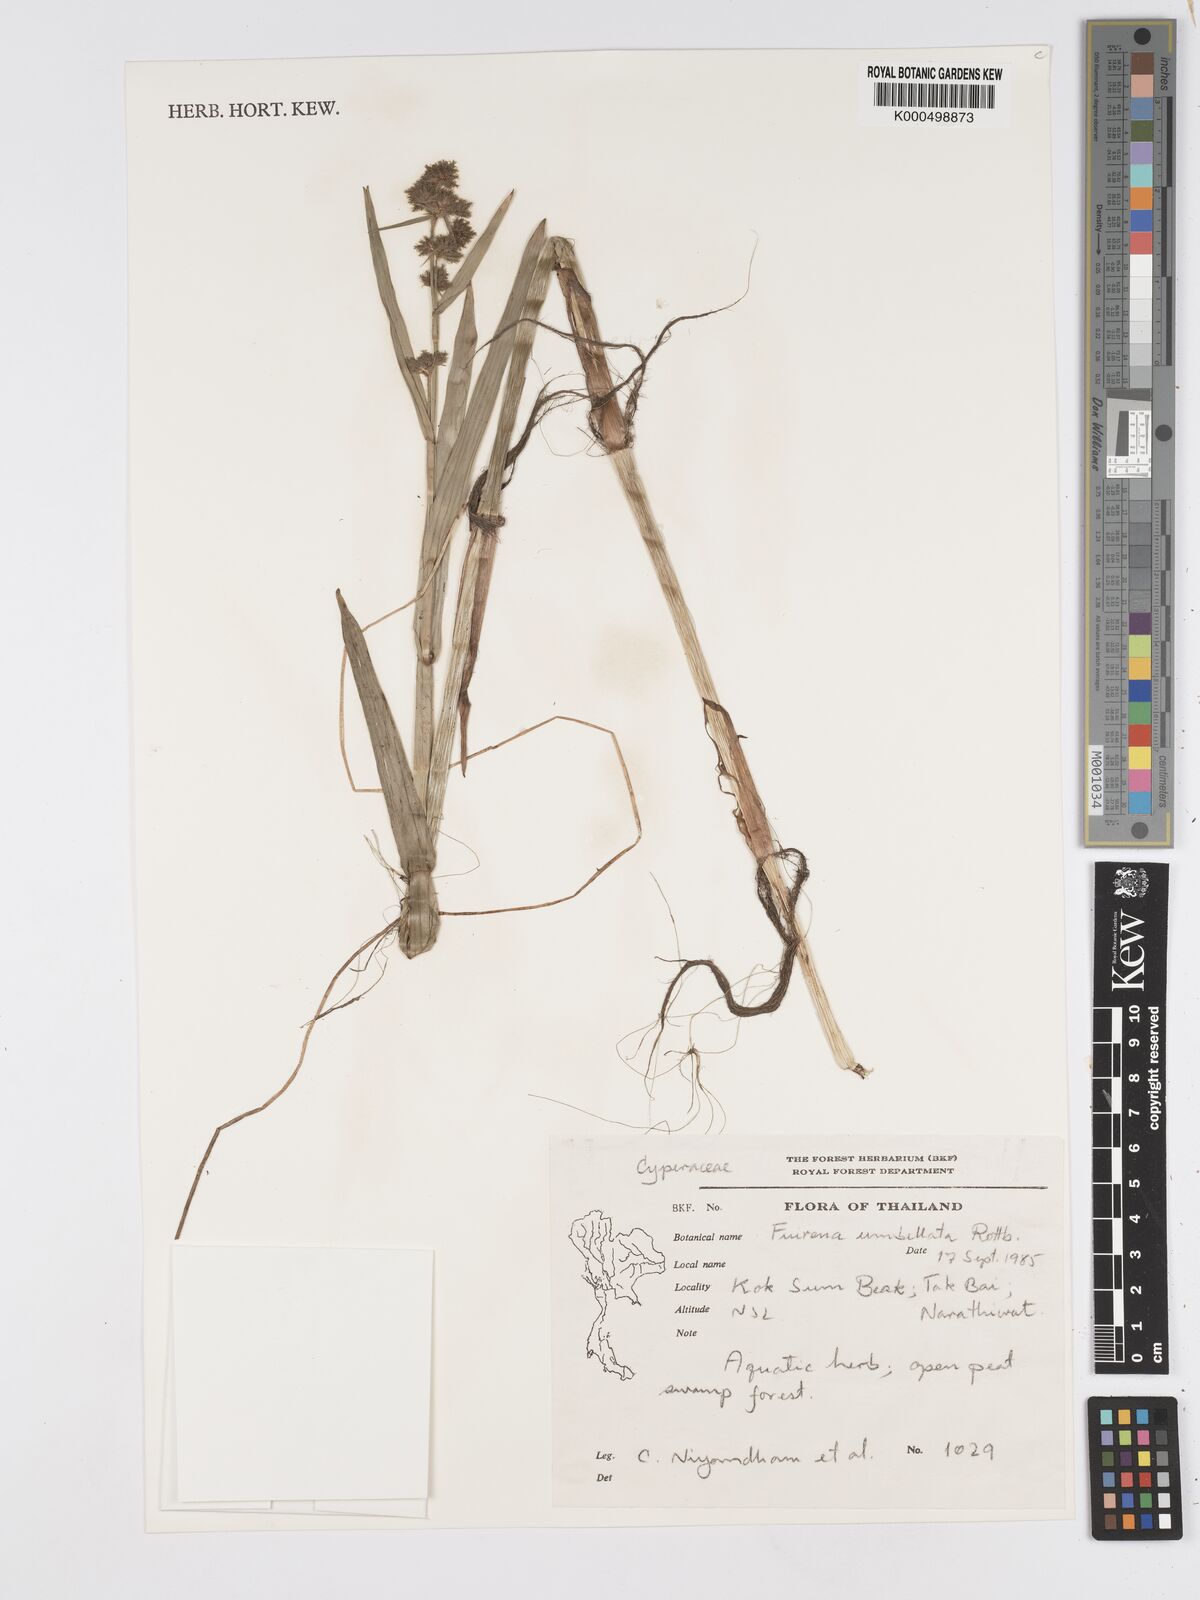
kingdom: Plantae
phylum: Tracheophyta
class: Liliopsida
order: Poales
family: Cyperaceae
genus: Fuirena
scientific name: Fuirena umbellata
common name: Yefen
